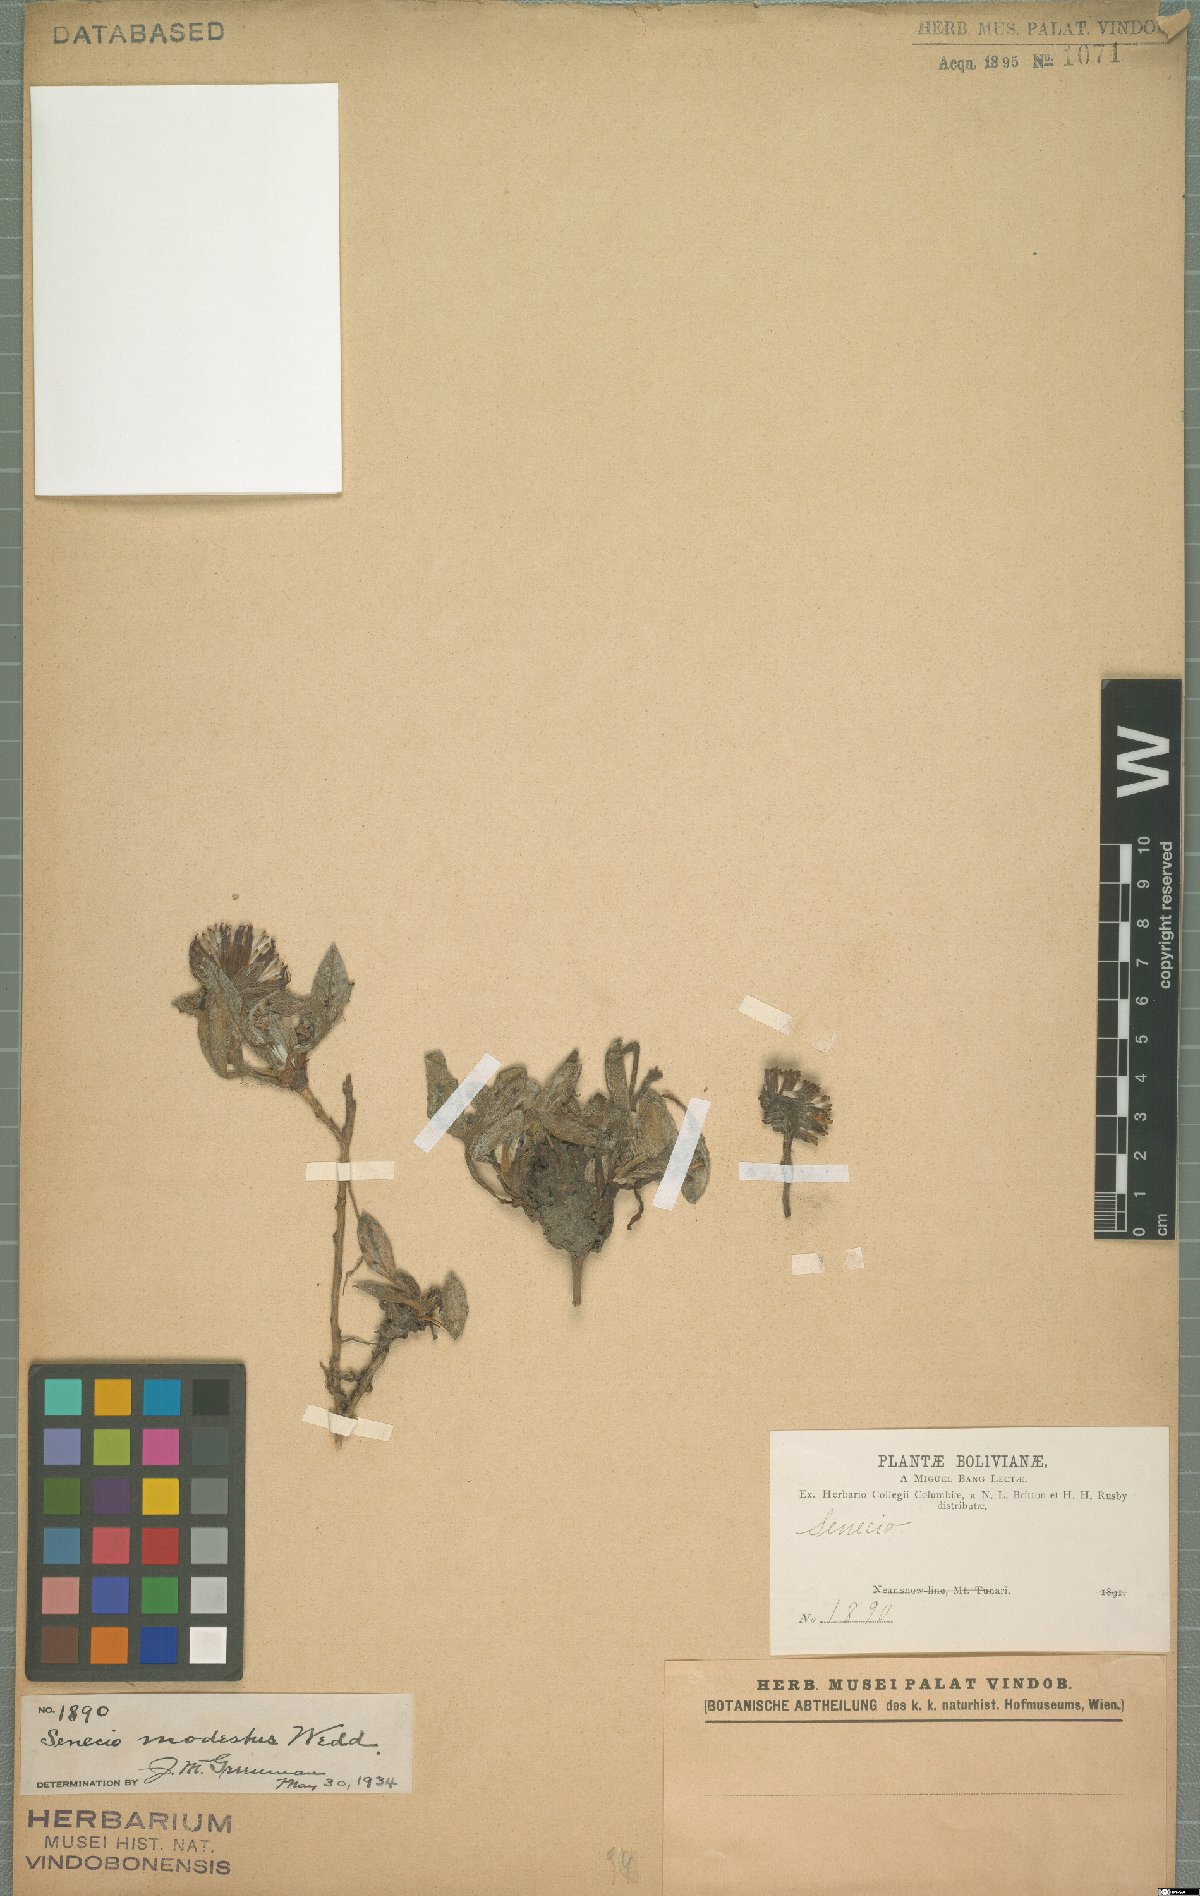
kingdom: Plantae
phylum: Tracheophyta
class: Magnoliopsida
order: Asterales
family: Asteraceae
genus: Culcitium
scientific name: Culcitium humile
